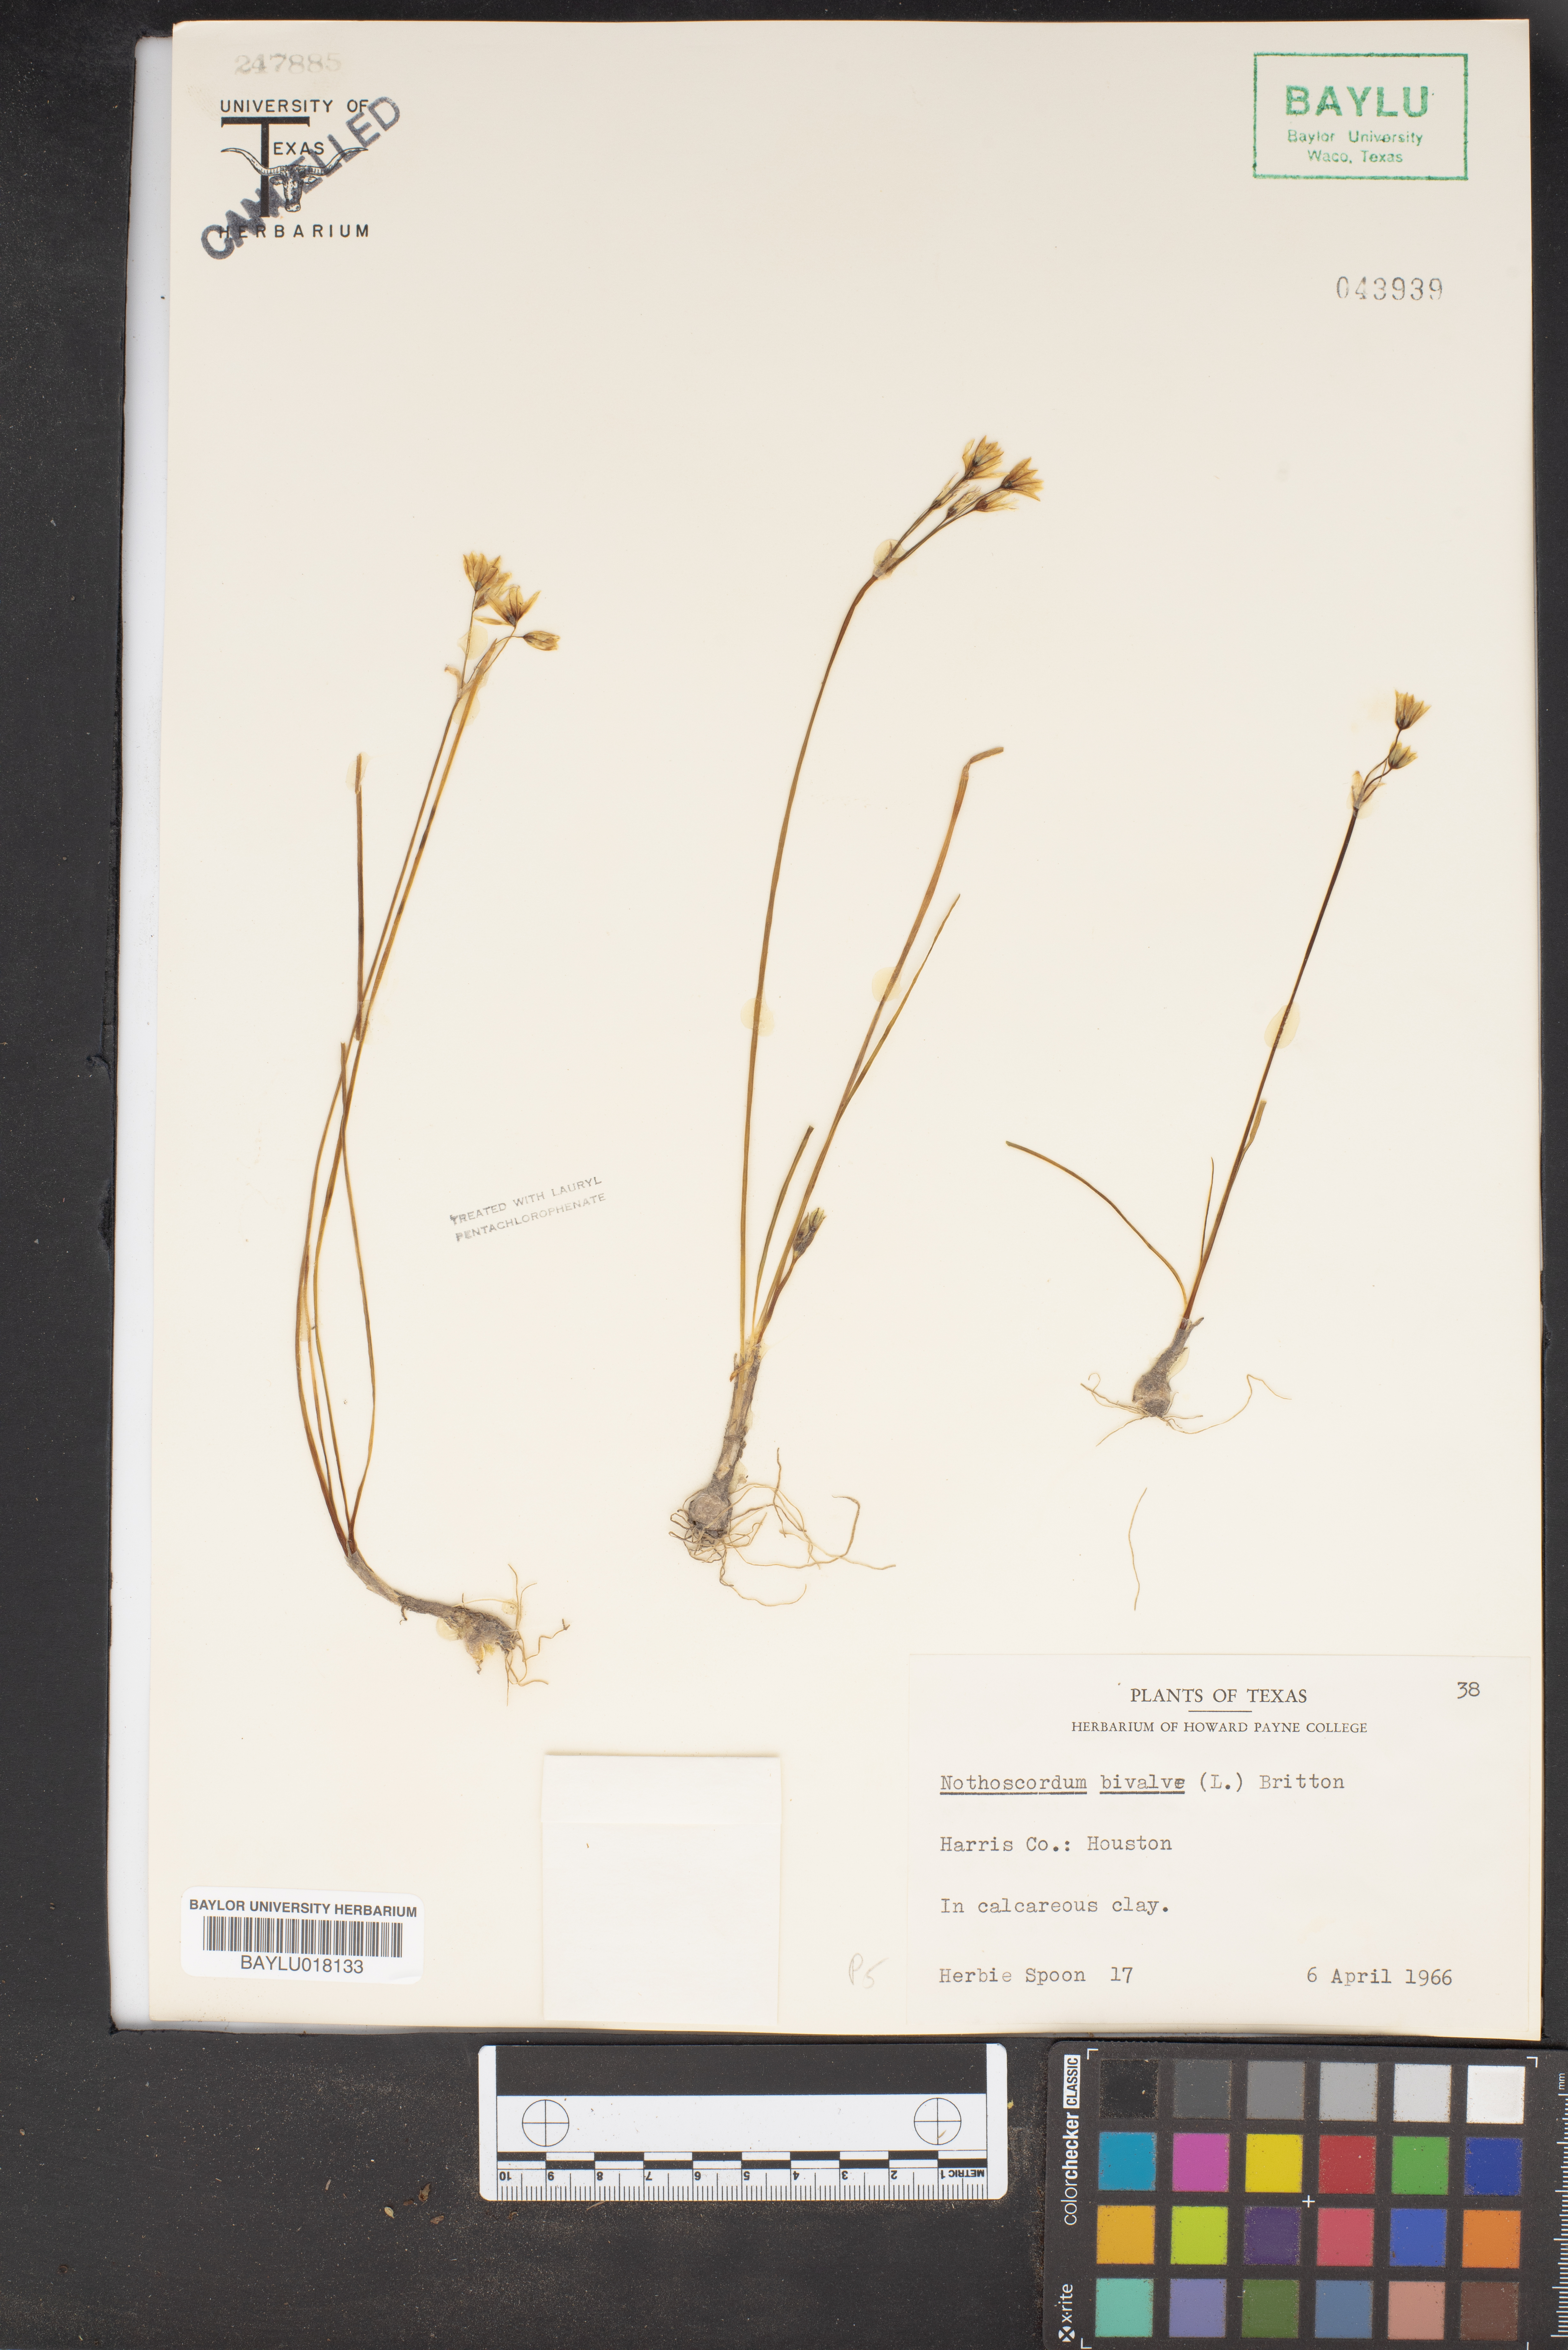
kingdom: Plantae
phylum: Tracheophyta
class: Liliopsida
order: Asparagales
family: Amaryllidaceae
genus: Nothoscordum
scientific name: Nothoscordum bivalve
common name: Crow-poison
